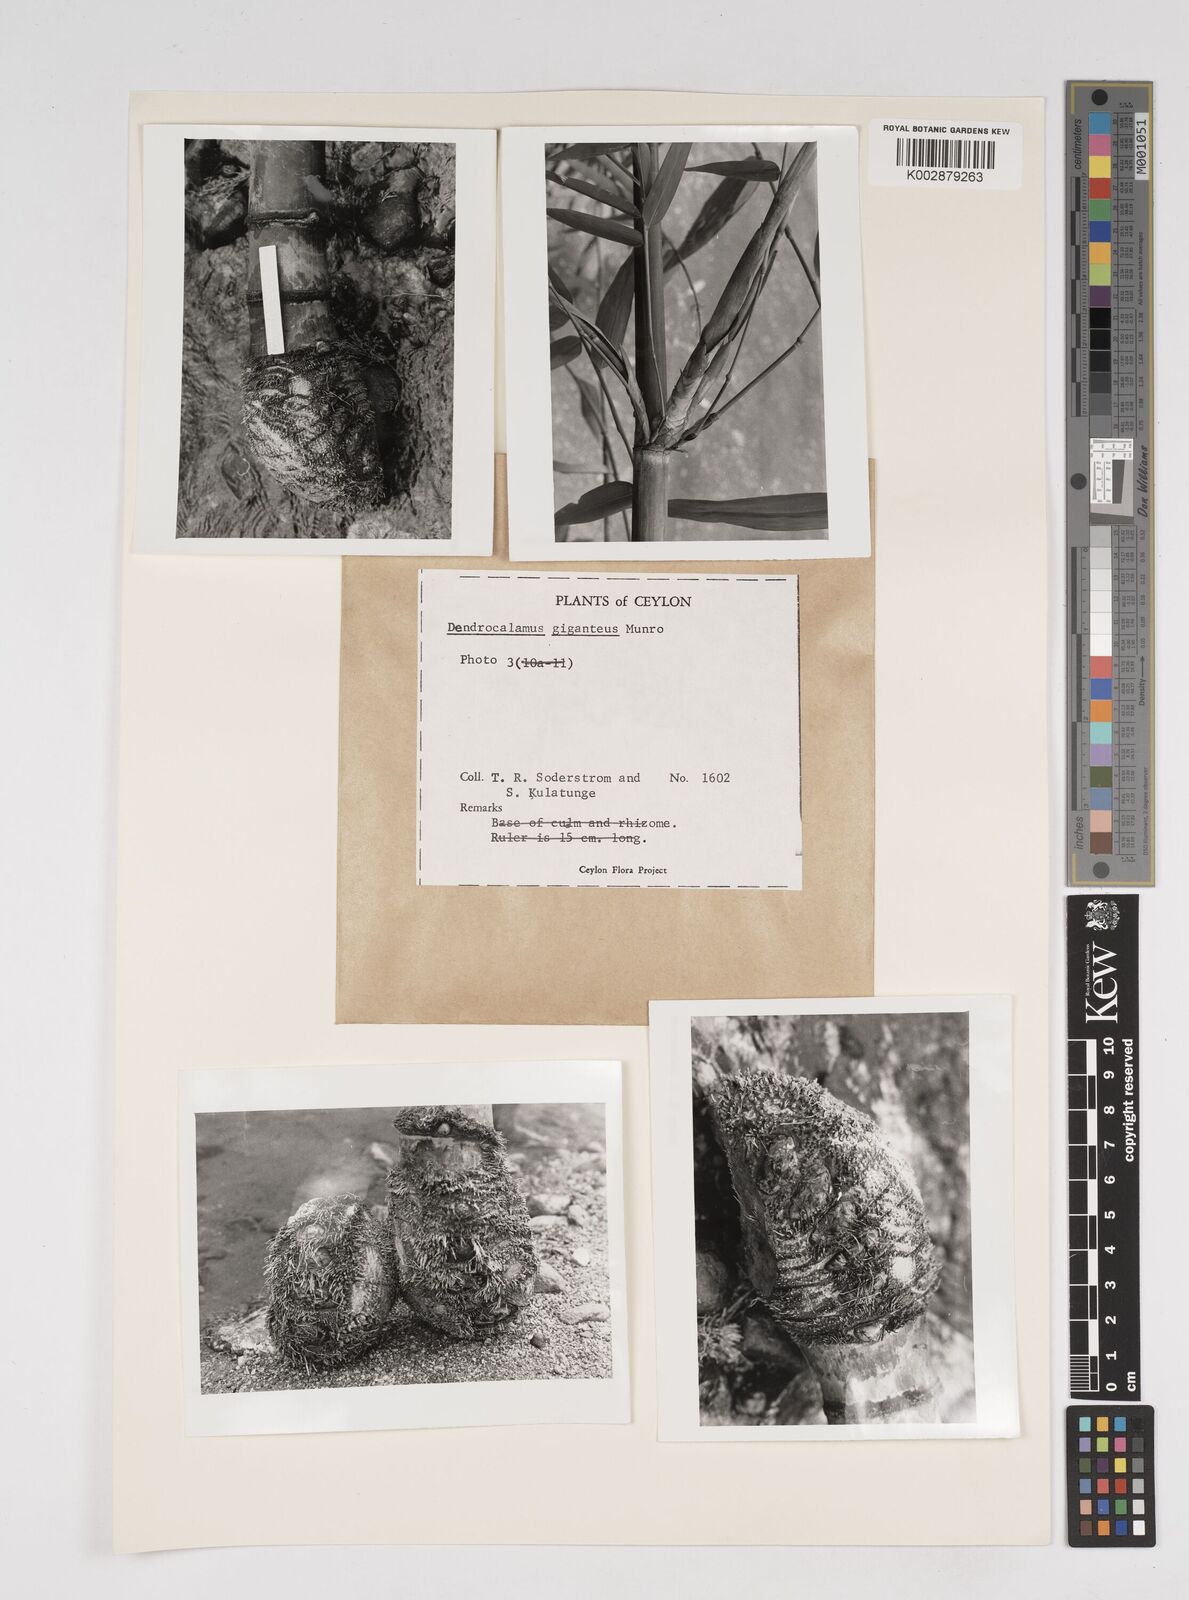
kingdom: Plantae
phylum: Tracheophyta
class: Liliopsida
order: Poales
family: Poaceae
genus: Dendrocalamus
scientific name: Dendrocalamus giganteus
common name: Giant bamboo
